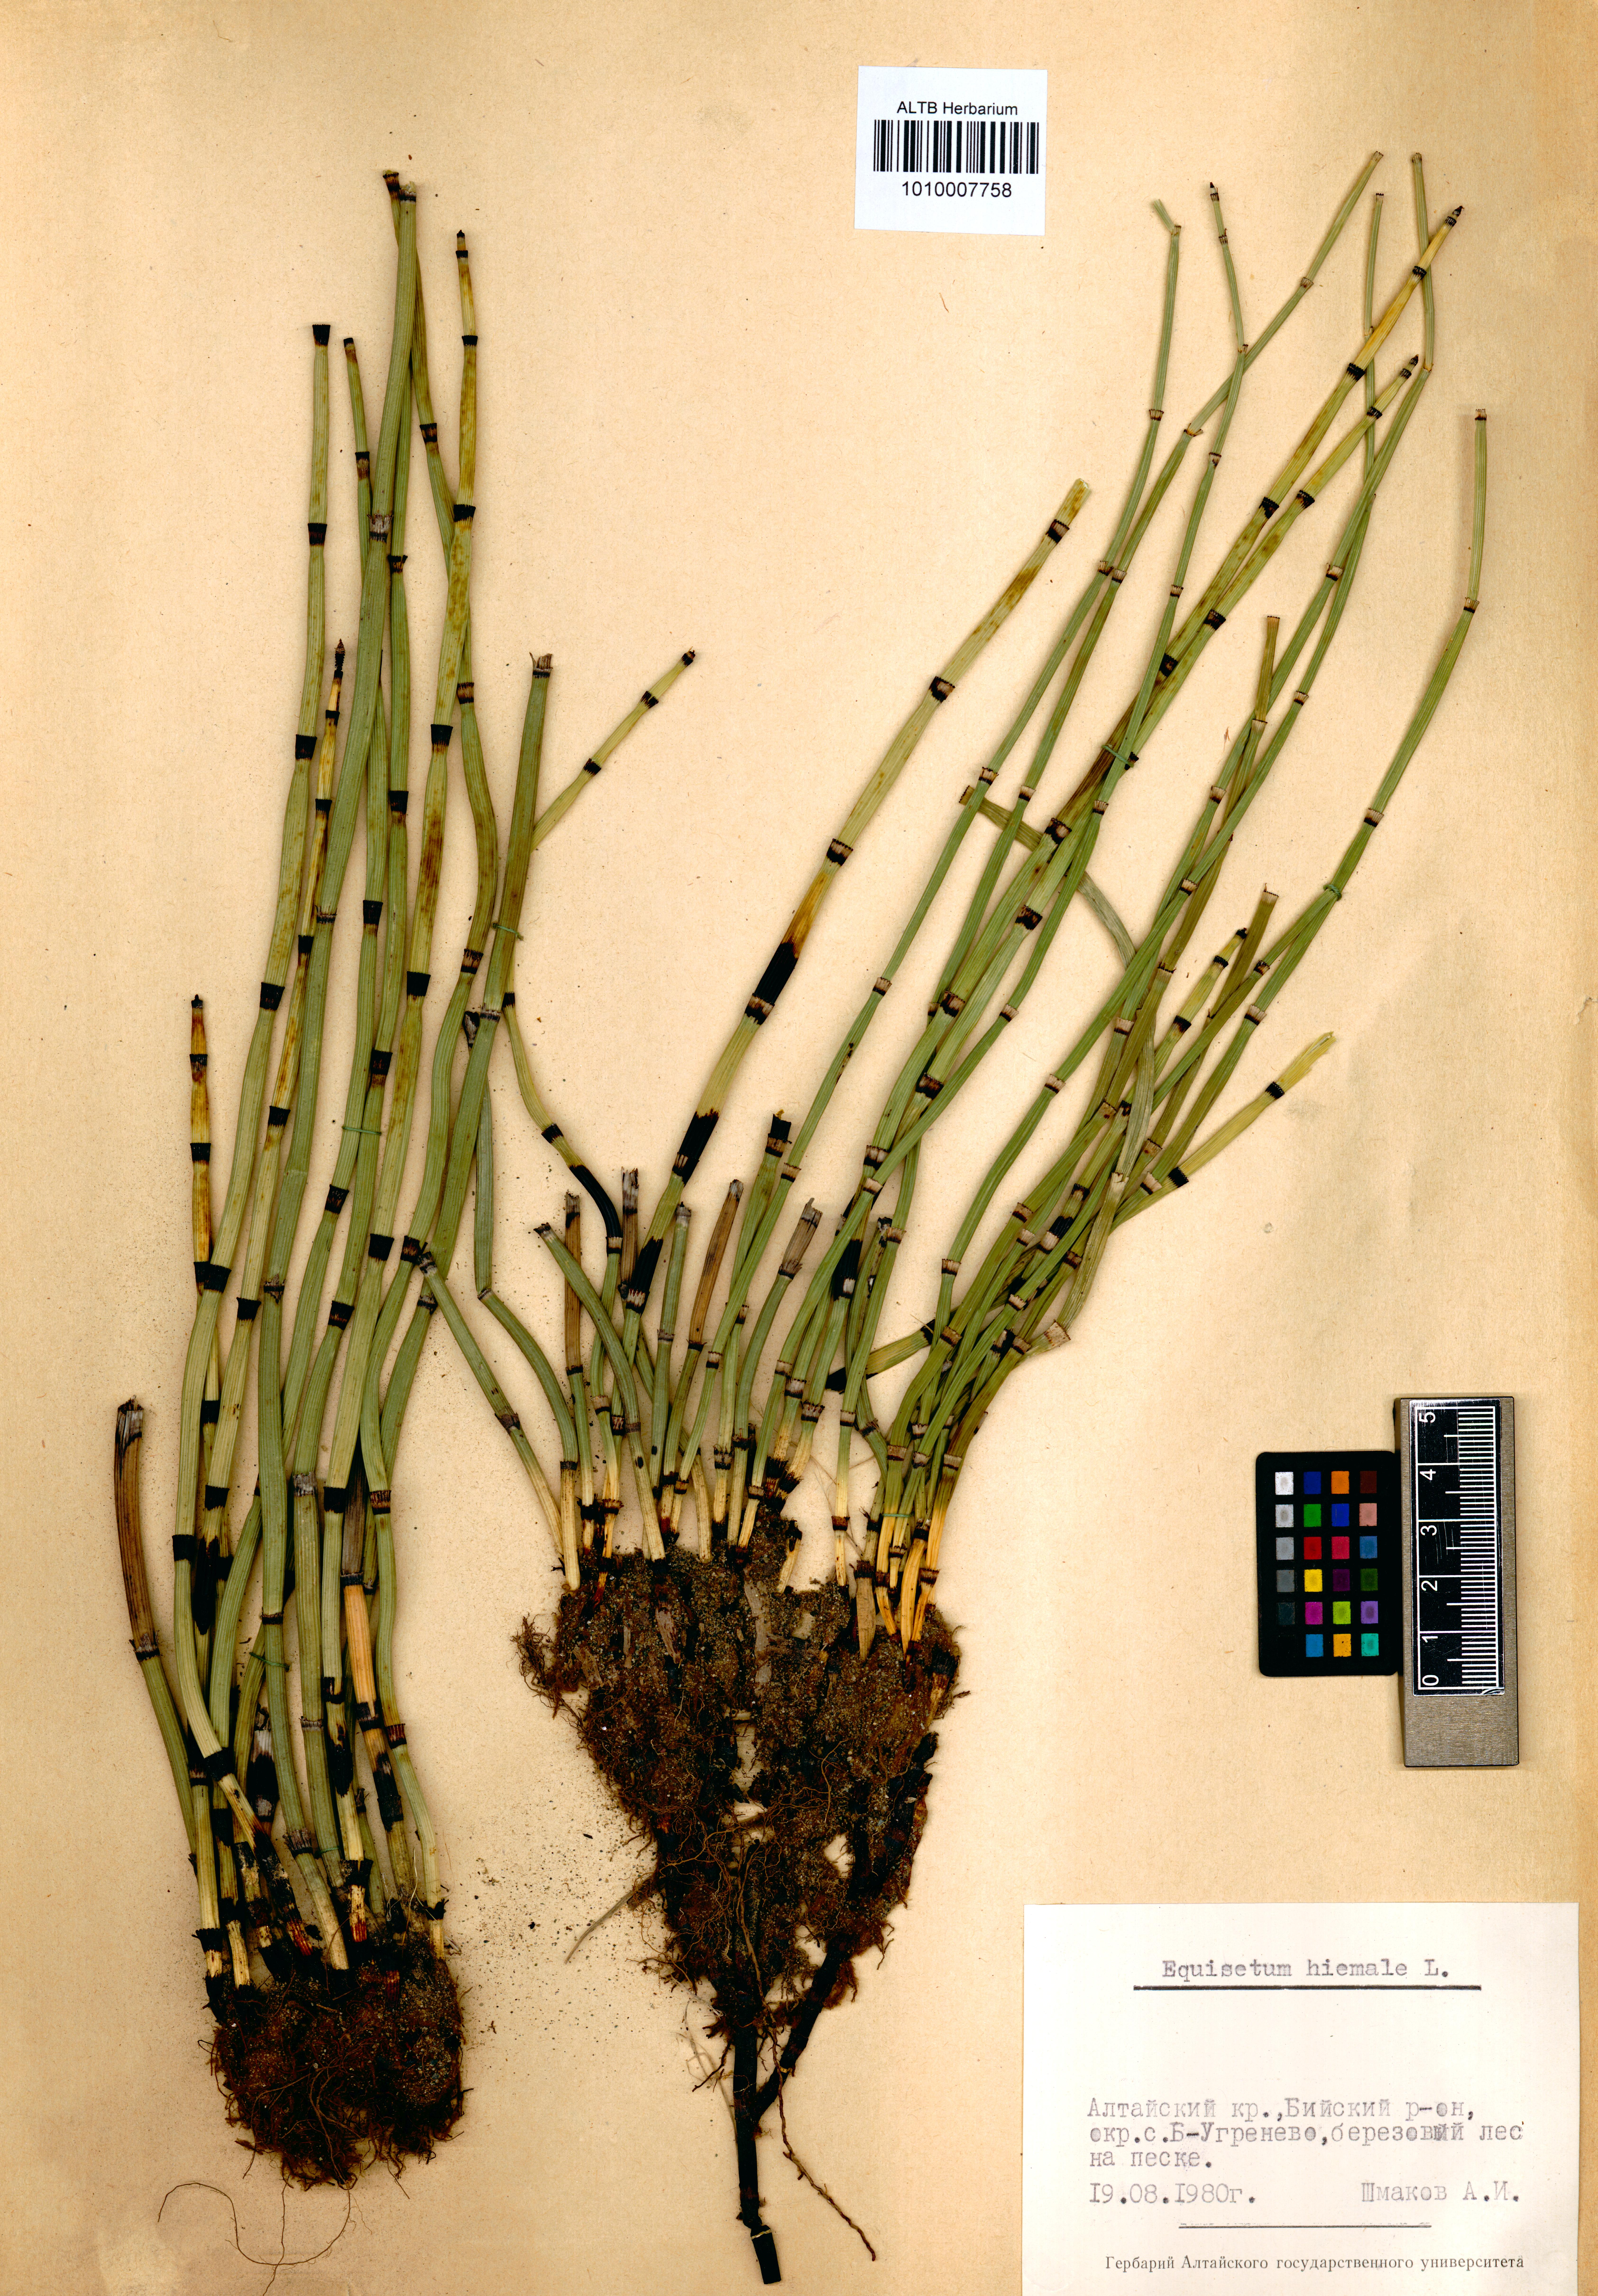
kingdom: Plantae
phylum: Tracheophyta
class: Polypodiopsida
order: Equisetales
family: Equisetaceae
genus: Equisetum
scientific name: Equisetum hyemale
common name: Rough horsetail
